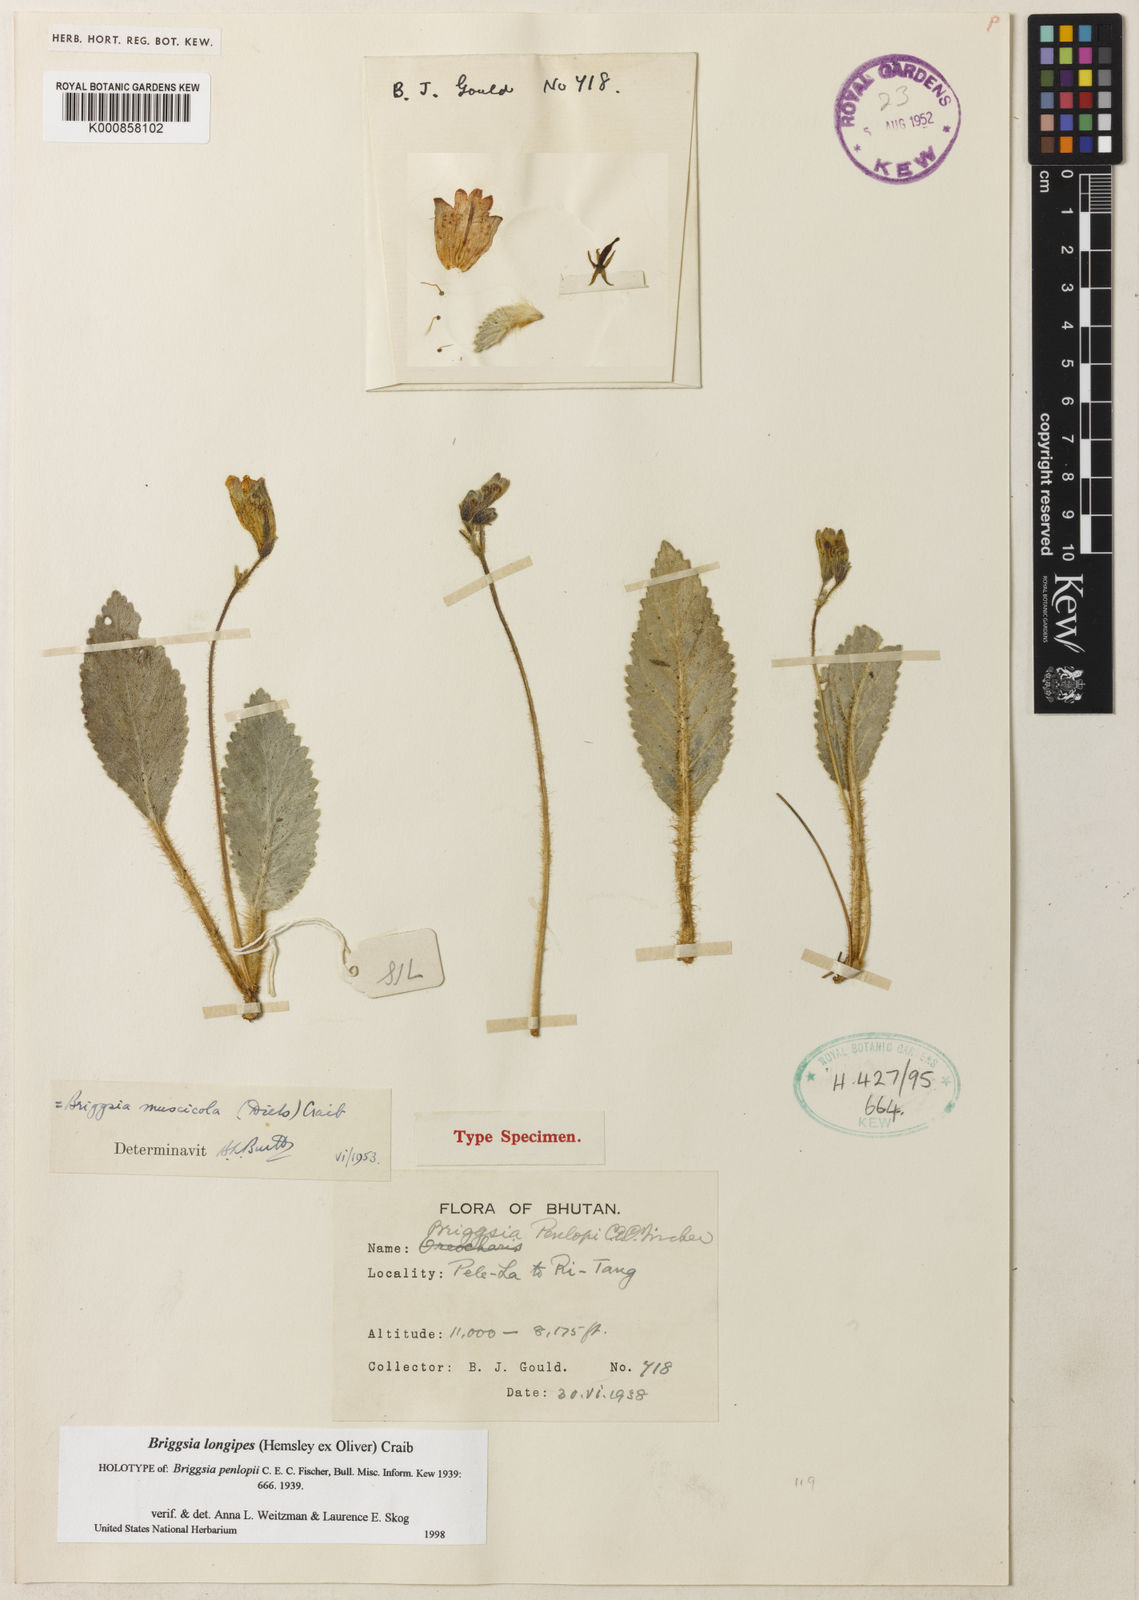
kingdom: Plantae
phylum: Tracheophyta
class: Magnoliopsida
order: Lamiales
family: Gesneriaceae
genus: Oreocharis
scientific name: Oreocharis
